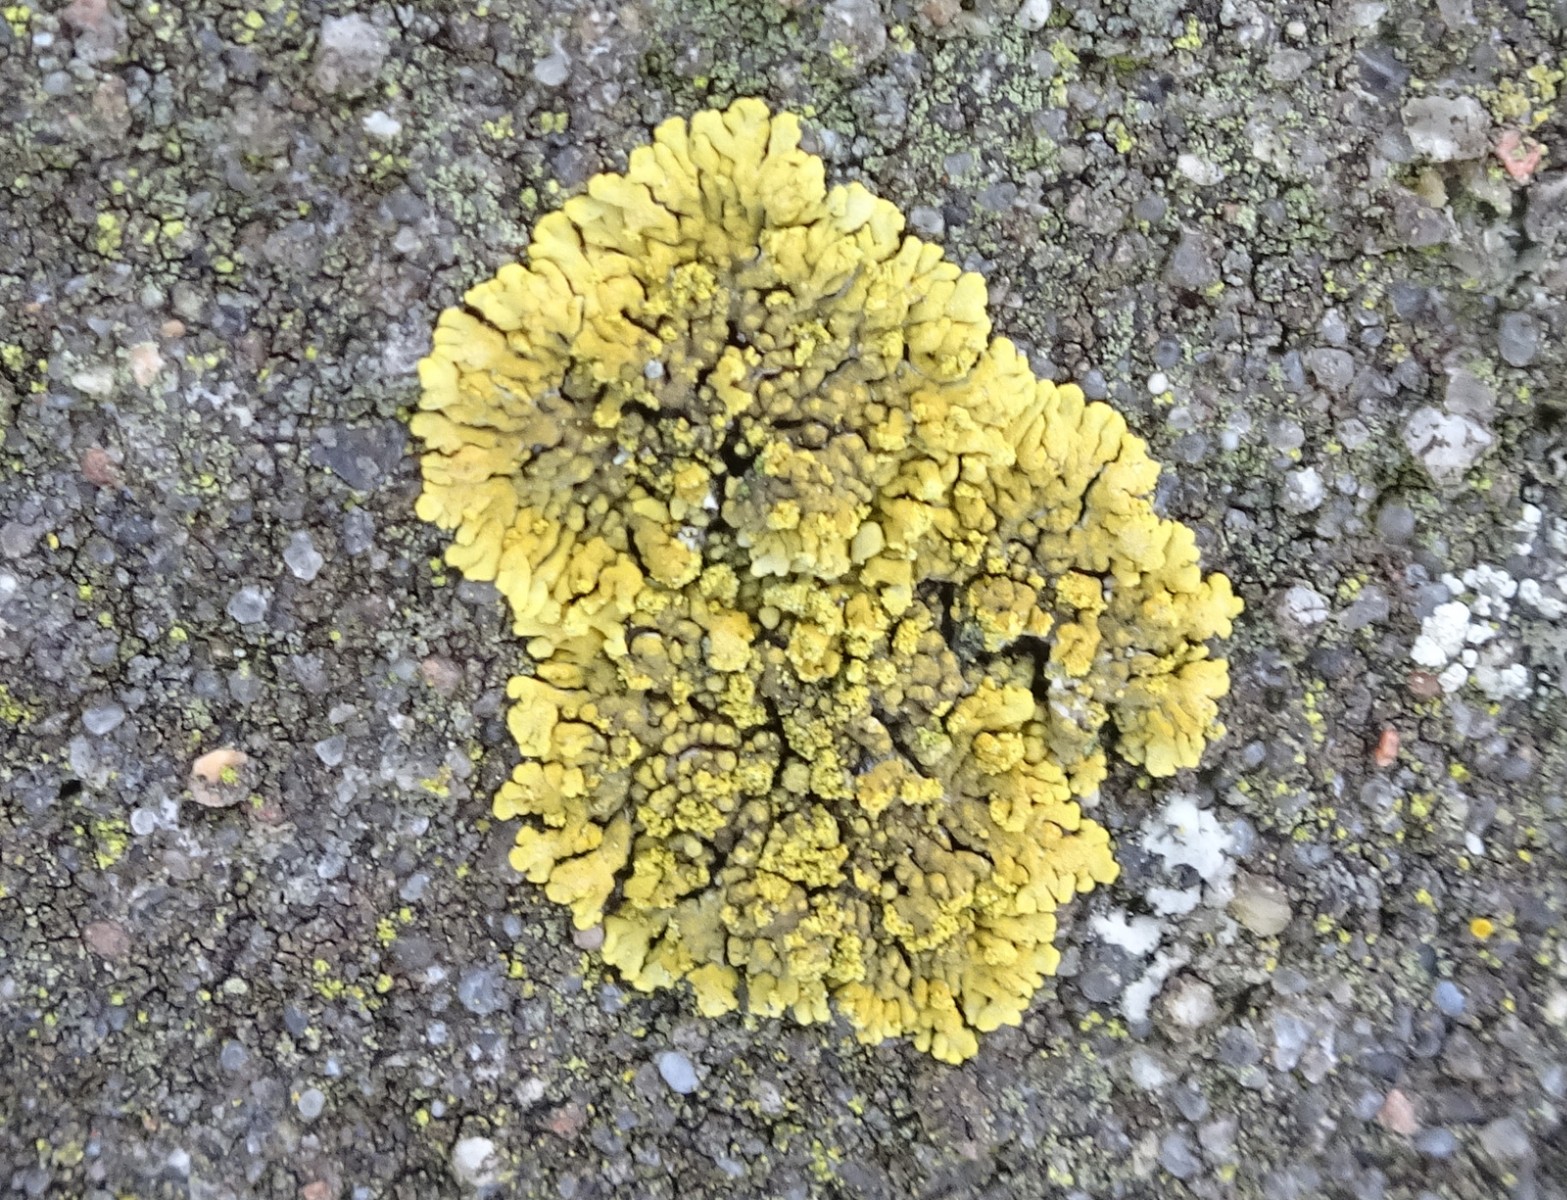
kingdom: Fungi
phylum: Ascomycota
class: Lecanoromycetes
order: Teloschistales
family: Teloschistaceae
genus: Calogaya
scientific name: Calogaya decipiens
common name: knudret orangelav
